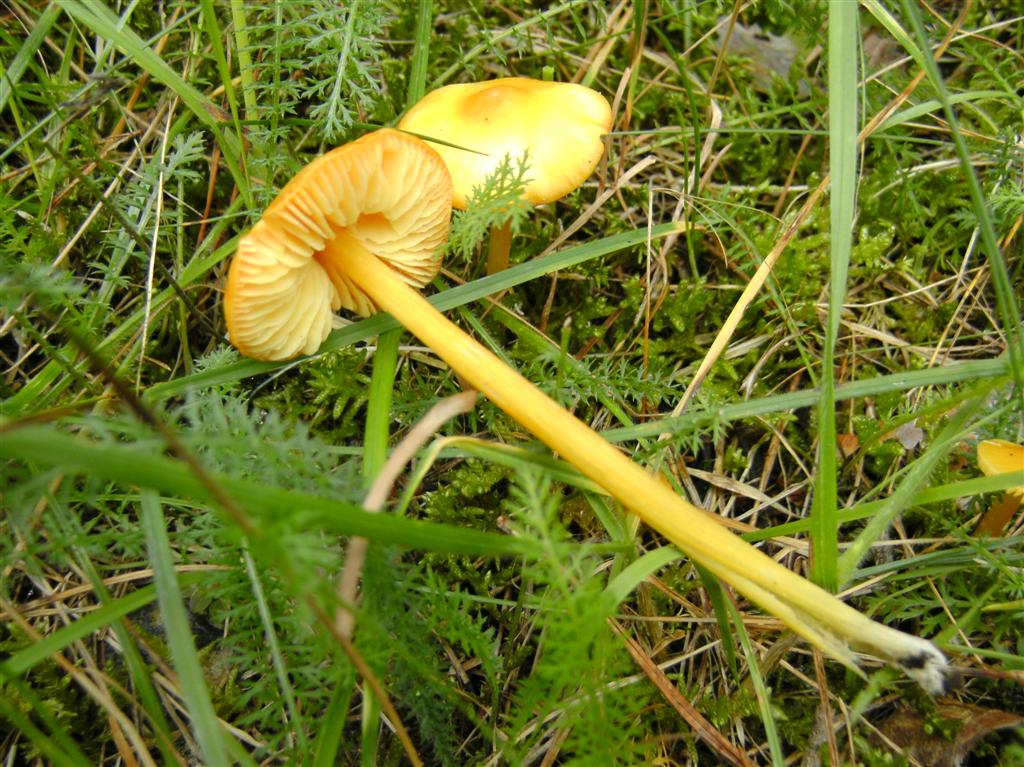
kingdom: Fungi
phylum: Basidiomycota
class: Agaricomycetes
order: Agaricales
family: Hygrophoraceae
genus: Hygrocybe
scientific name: Hygrocybe acutoconica
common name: spidspuklet vokshat
